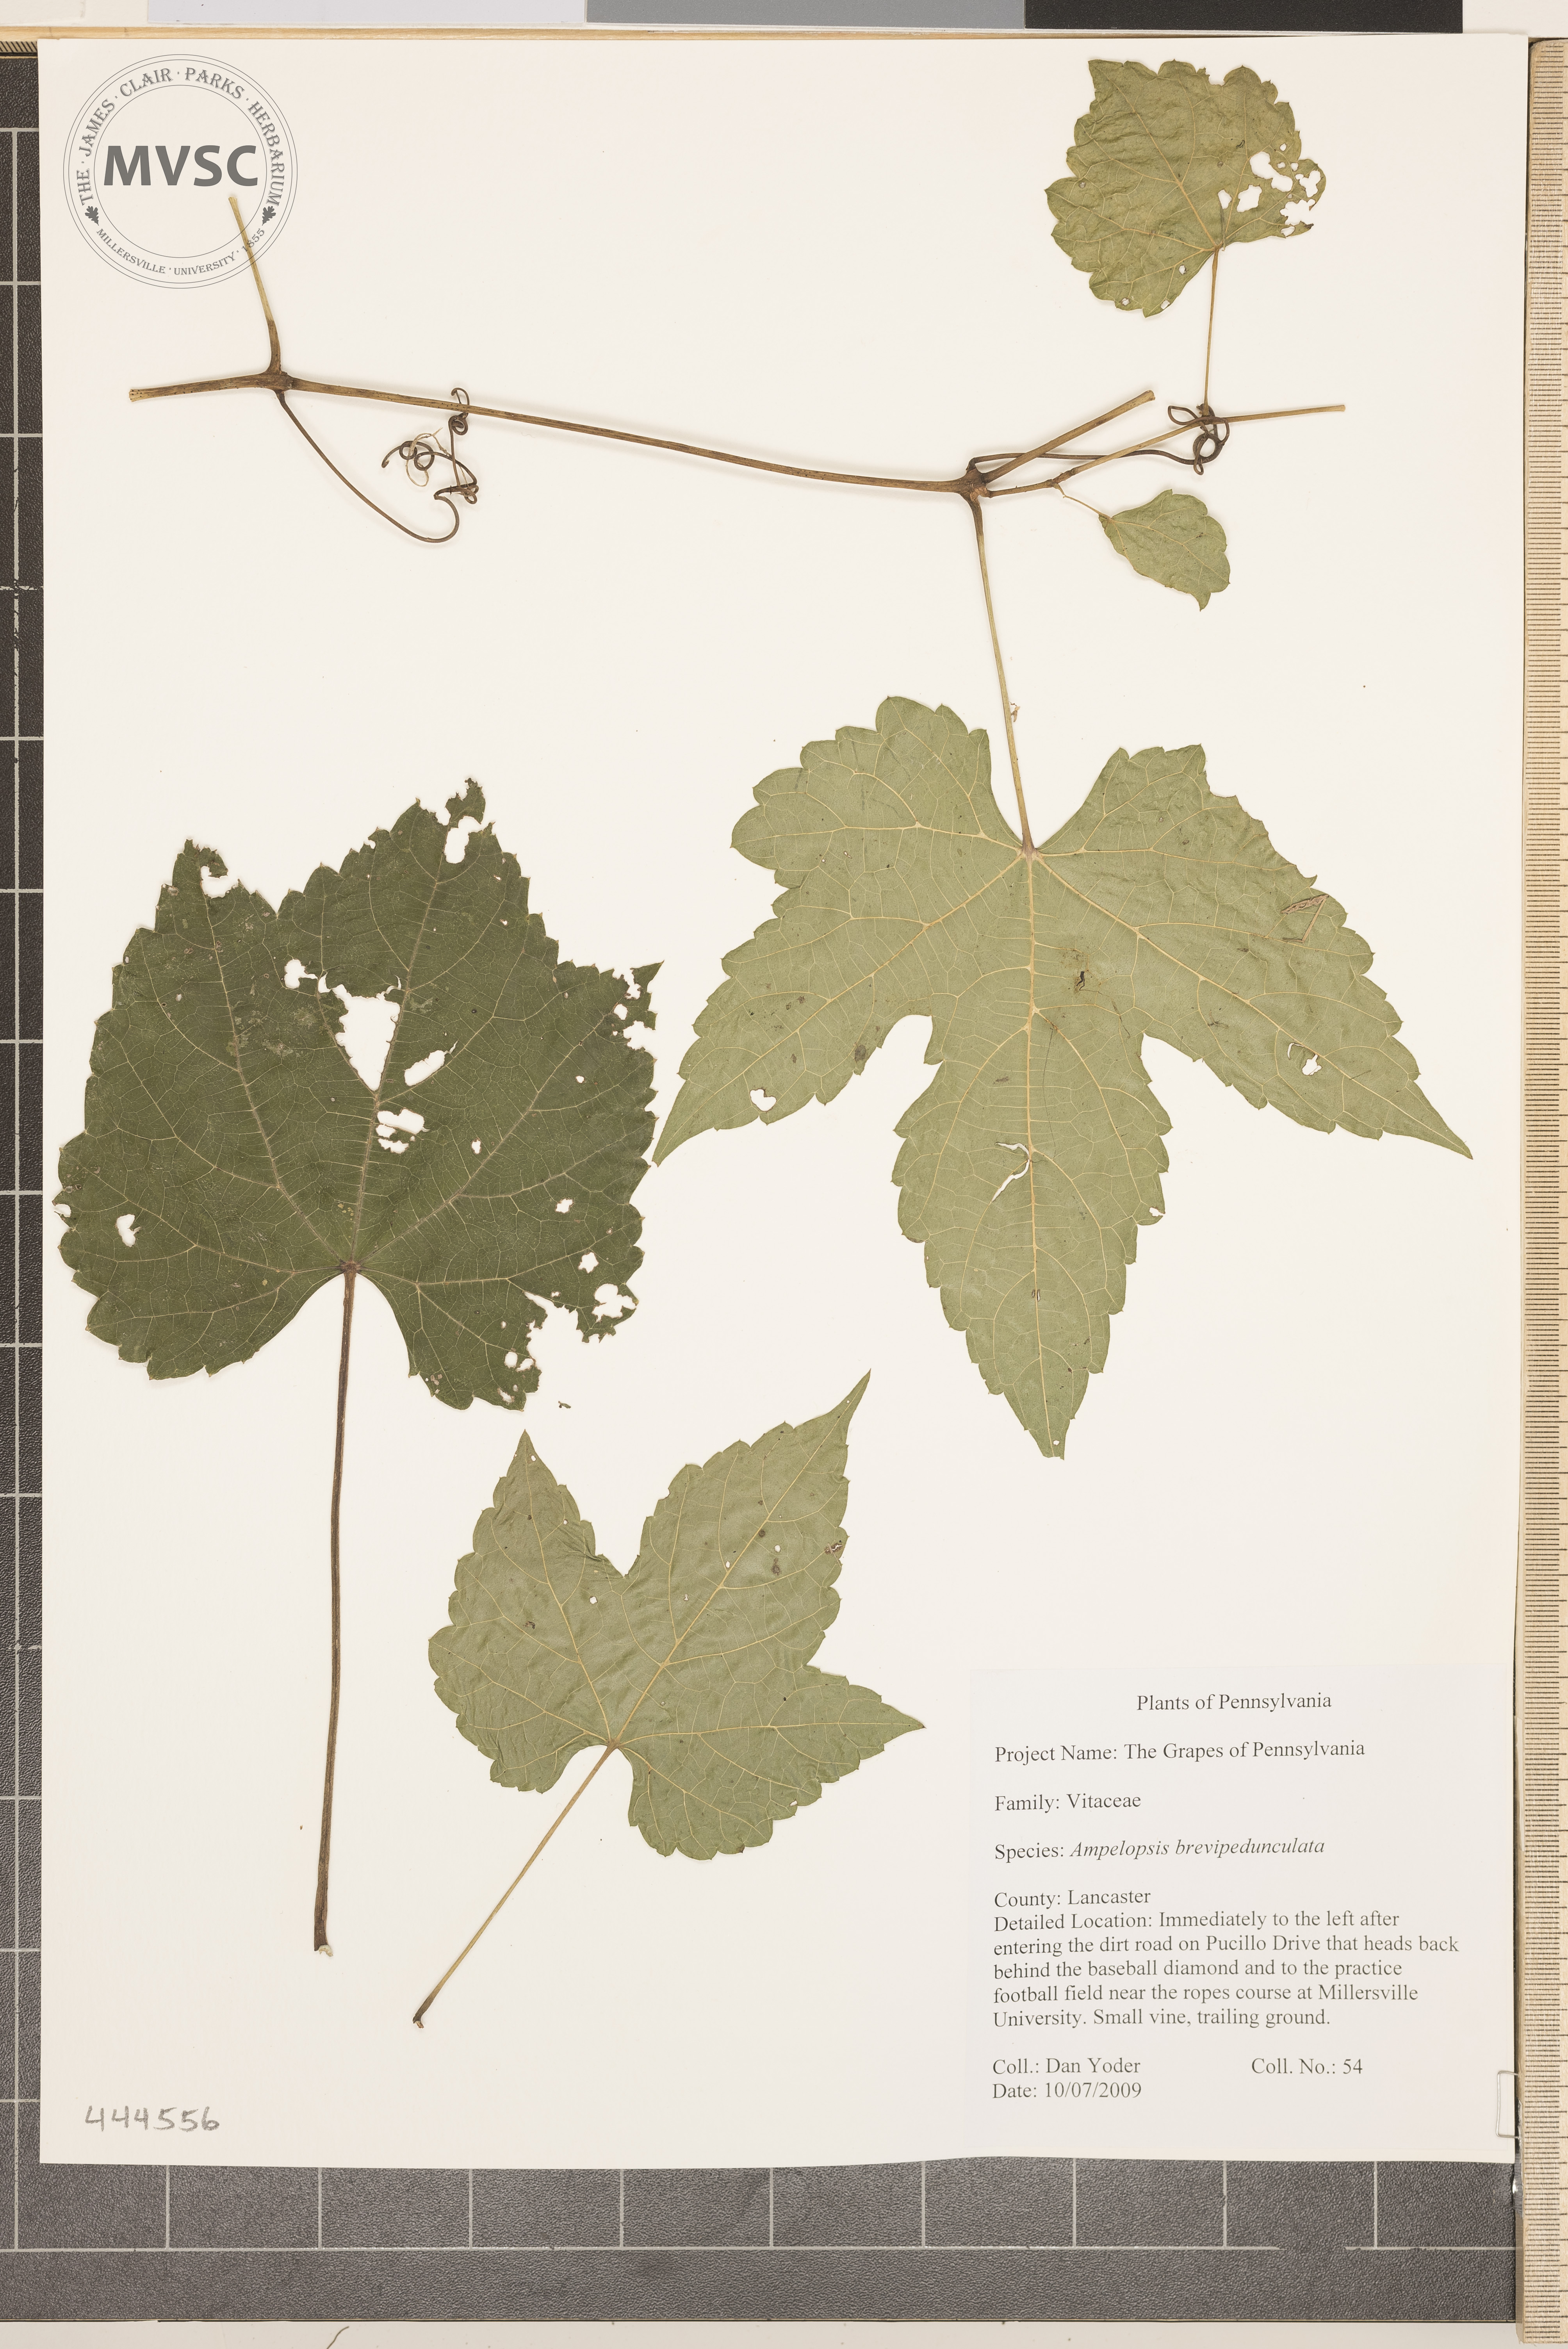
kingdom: Plantae
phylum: Tracheophyta
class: Magnoliopsida
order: Vitales
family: Vitaceae
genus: Ampelopsis
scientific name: Ampelopsis brevipedunculata
